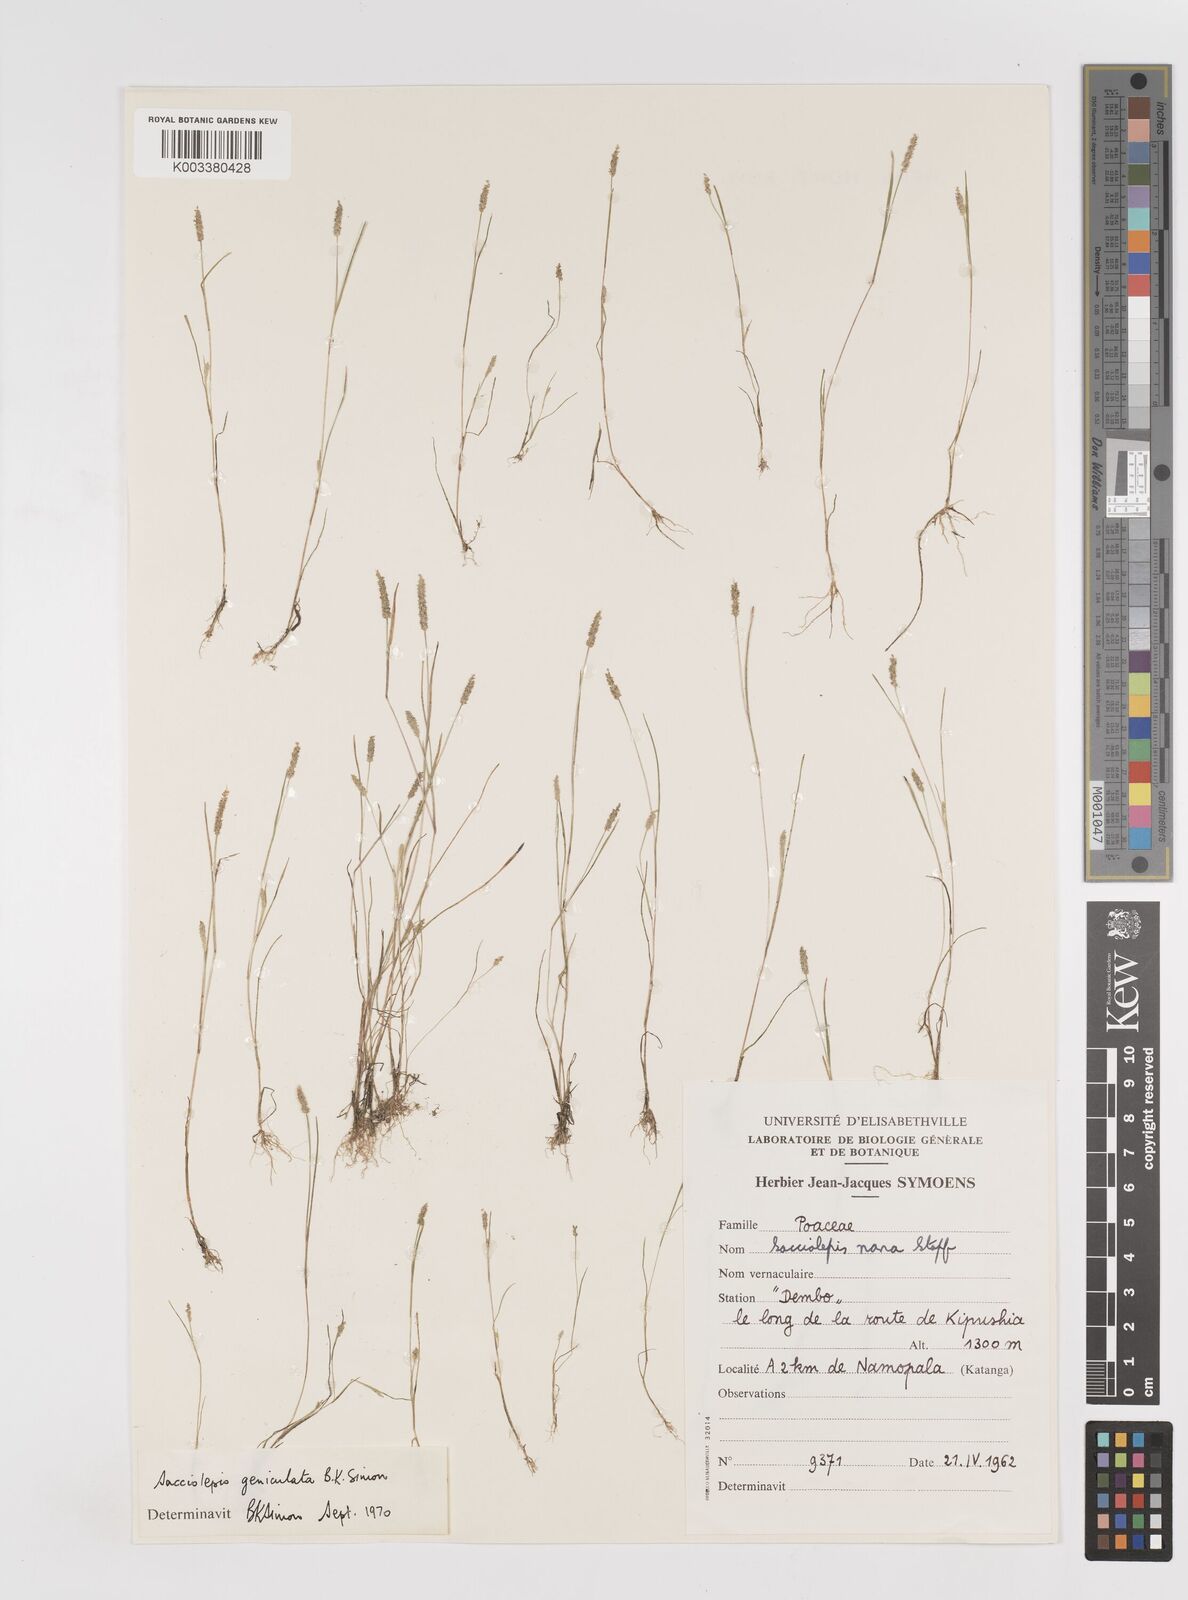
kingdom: Plantae
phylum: Tracheophyta
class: Liliopsida
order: Poales
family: Poaceae
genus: Sacciolepis
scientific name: Sacciolepis myosuroides
